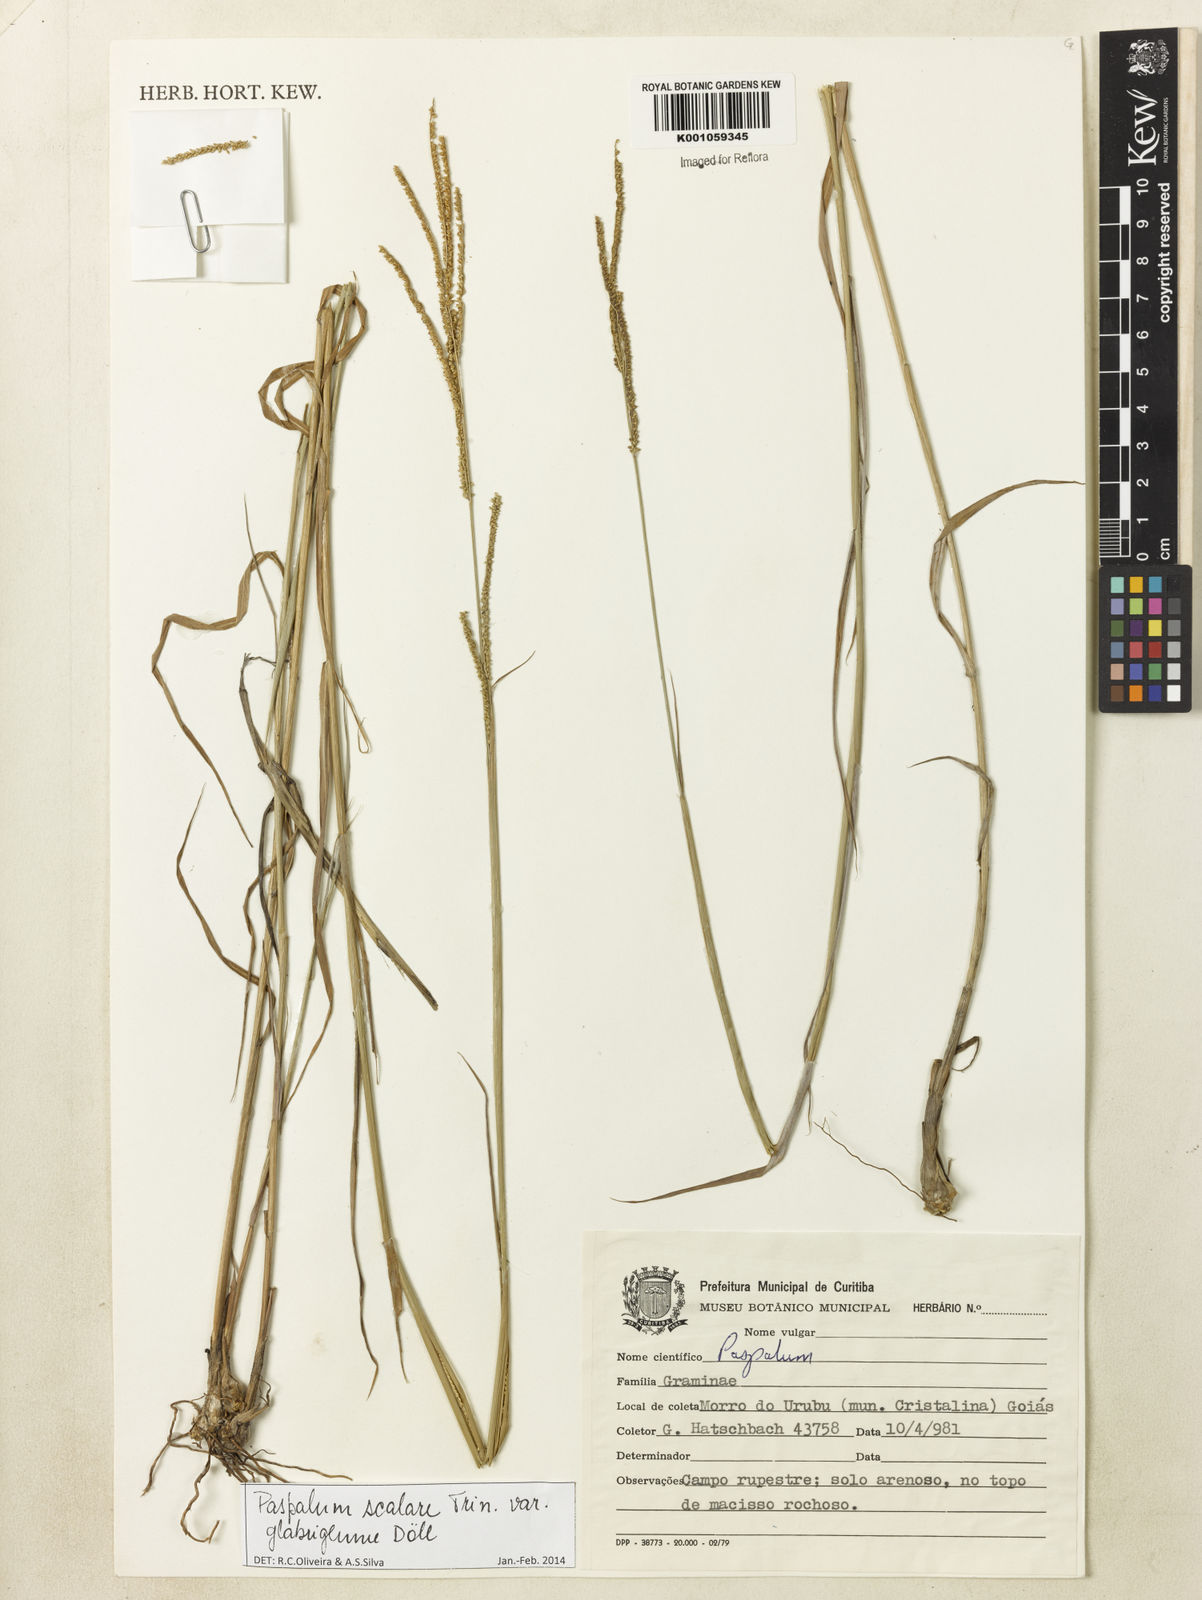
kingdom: Plantae
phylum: Tracheophyta
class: Liliopsida
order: Poales
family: Poaceae
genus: Paspalum
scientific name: Paspalum
